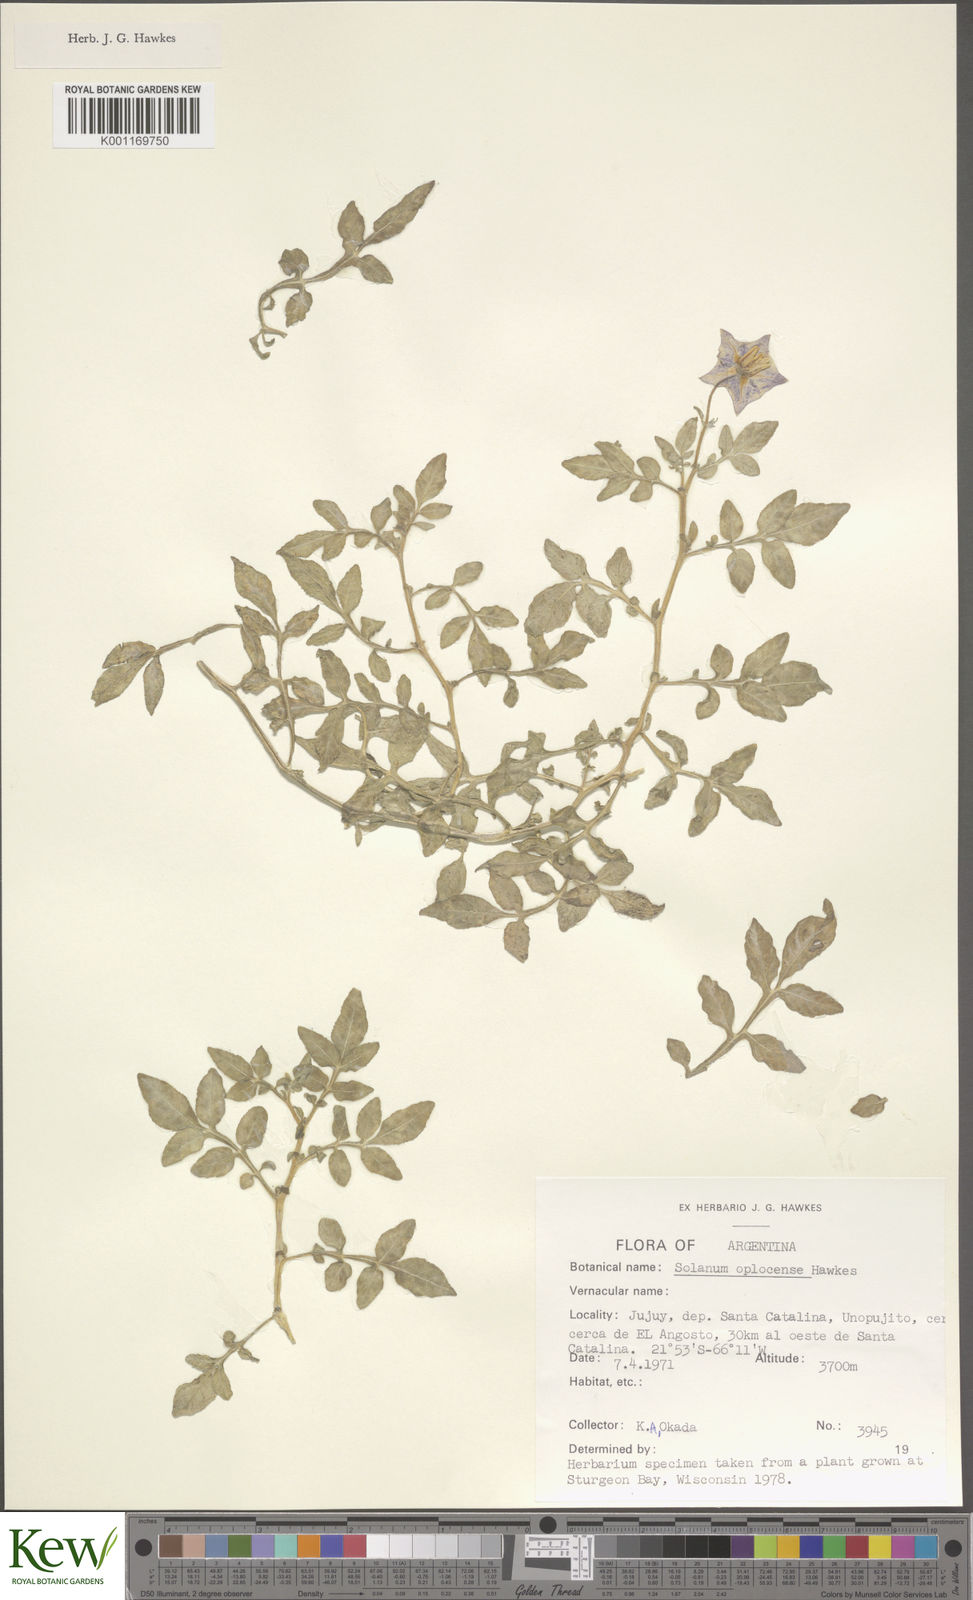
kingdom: Plantae
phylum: Tracheophyta
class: Magnoliopsida
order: Solanales
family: Solanaceae
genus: Solanum
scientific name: Solanum brevicaule
